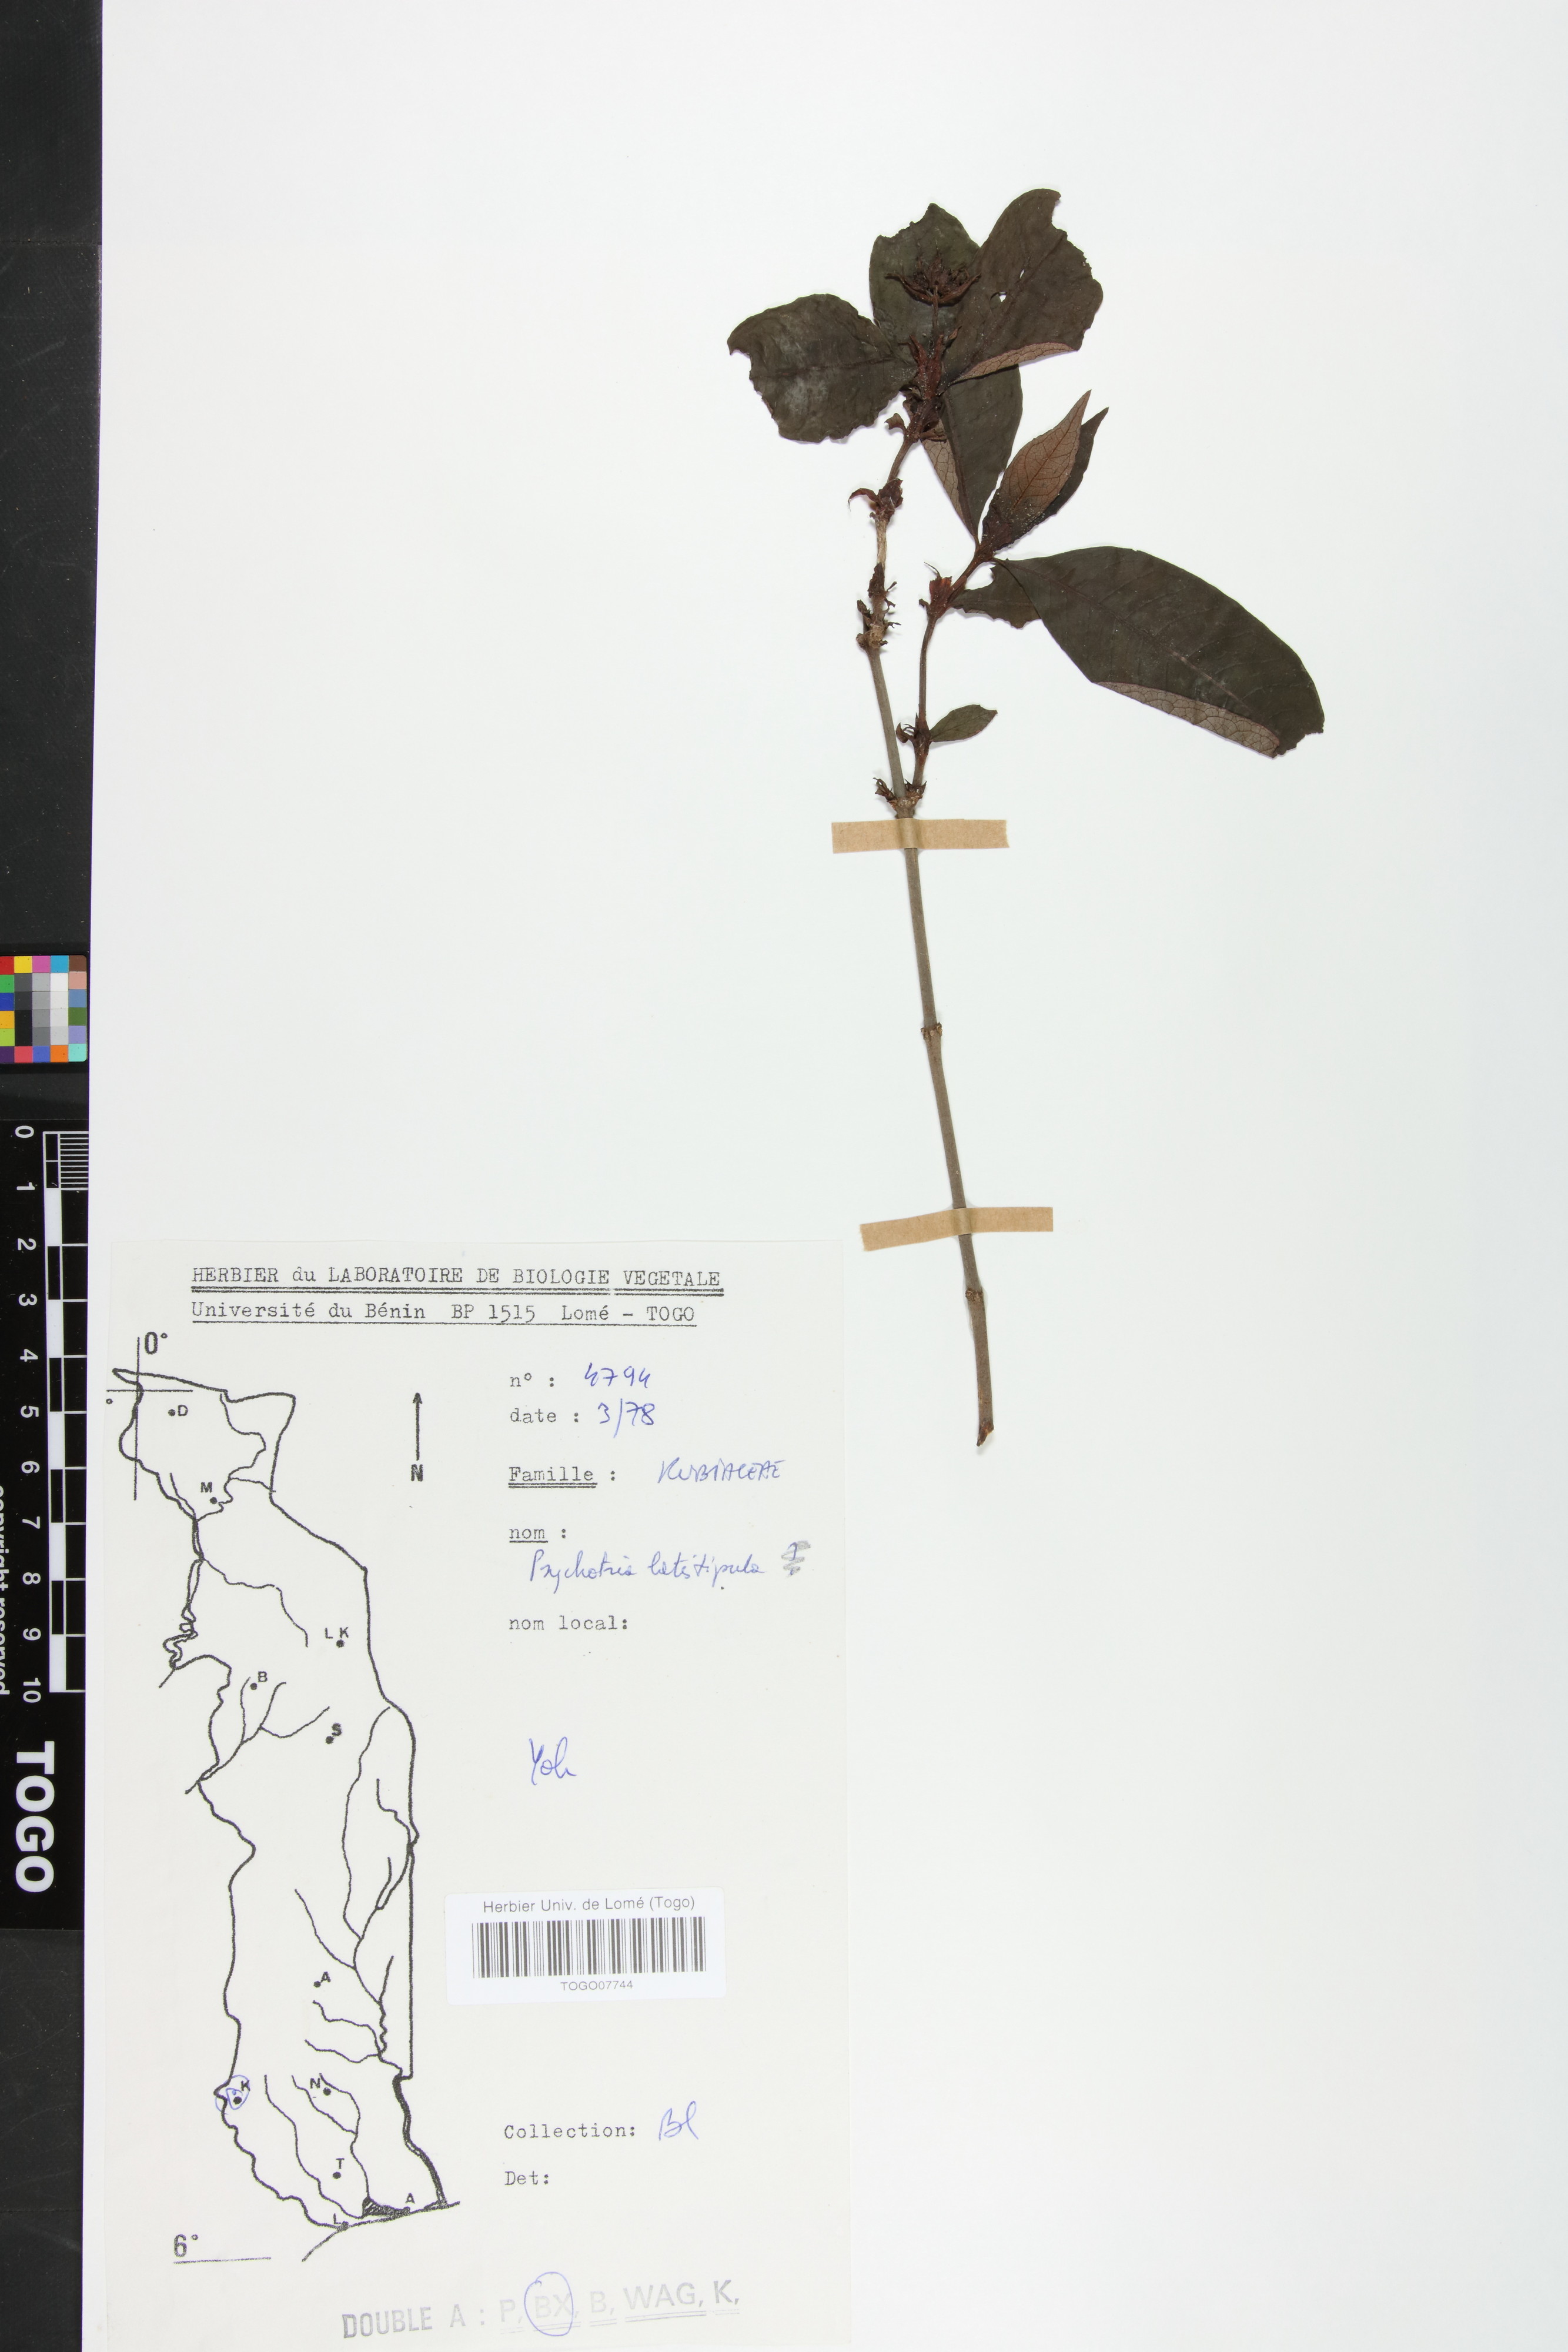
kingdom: Plantae
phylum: Tracheophyta
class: Magnoliopsida
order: Gentianales
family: Rubiaceae
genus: Psychotria
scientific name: Psychotria latistipula
